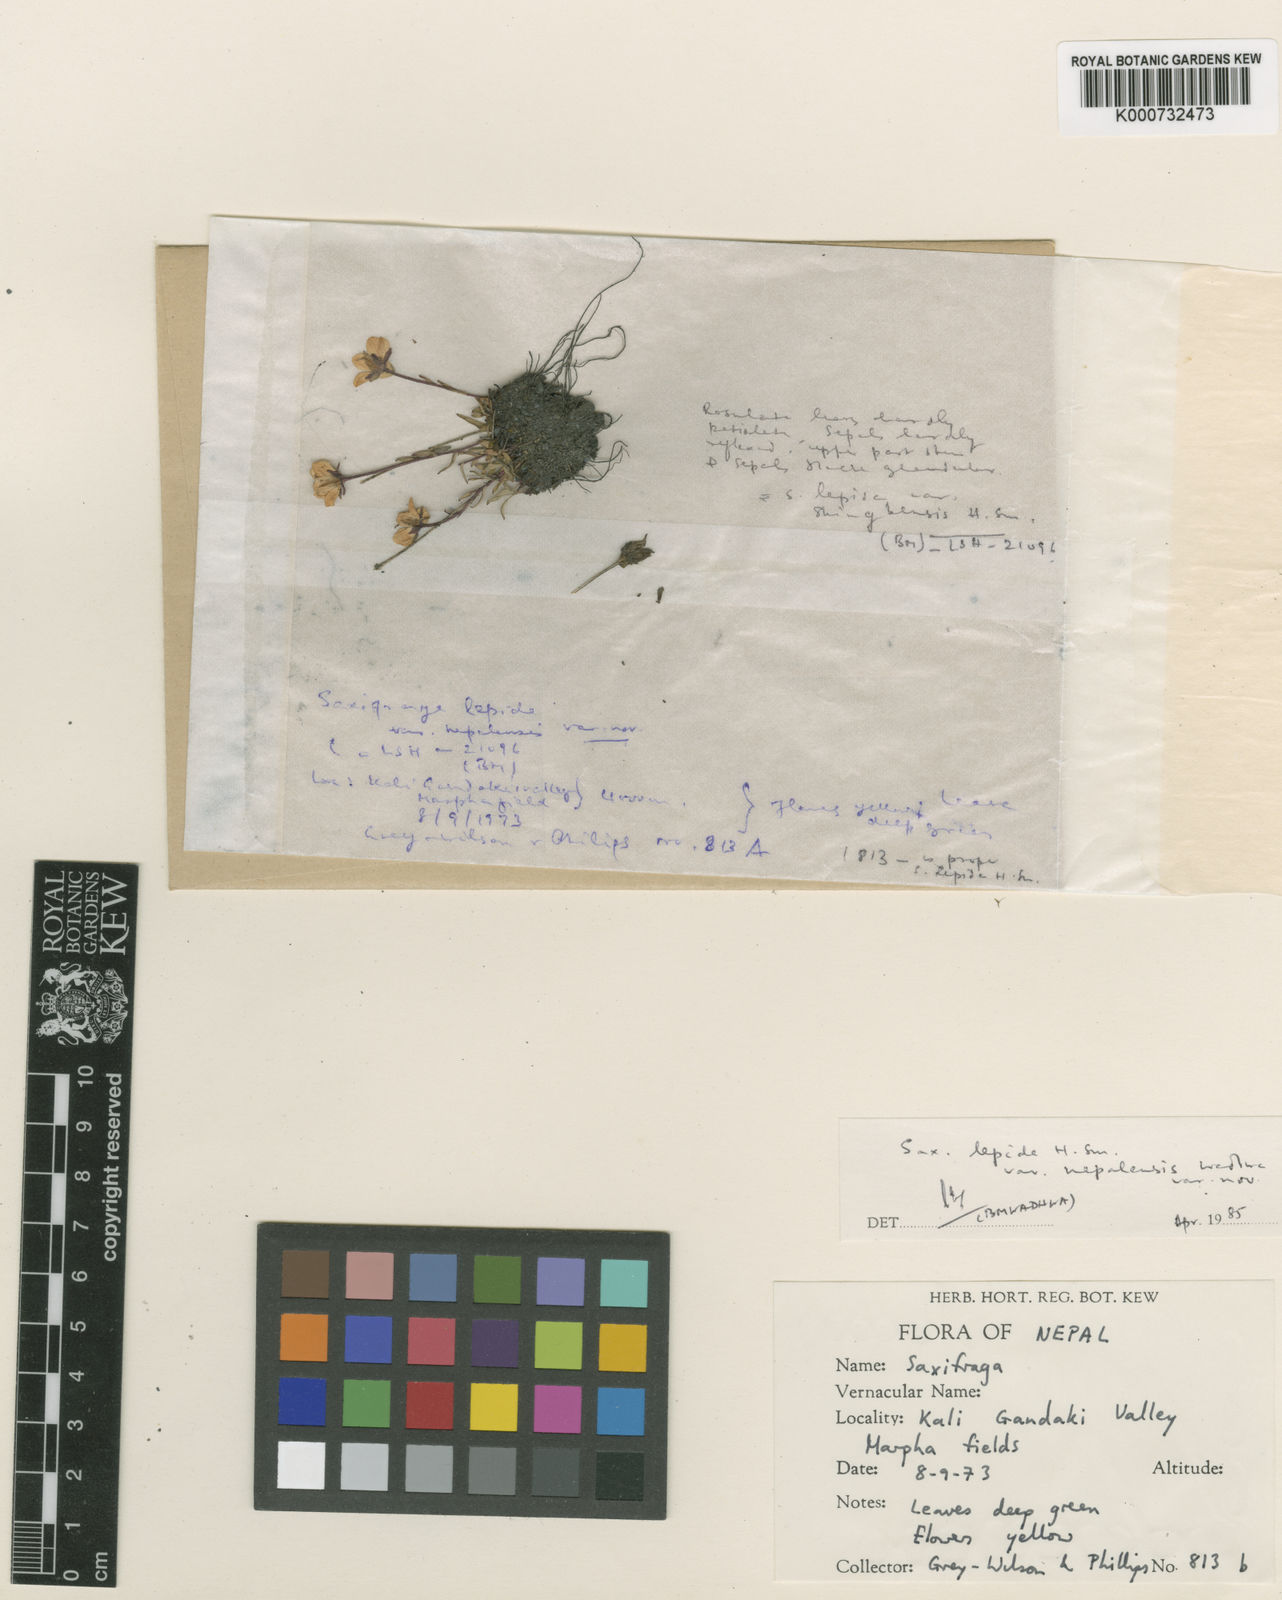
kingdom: Plantae
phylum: Tracheophyta
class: Magnoliopsida
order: Saxifragales
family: Saxifragaceae
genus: Saxifraga
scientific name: Saxifraga lepida
